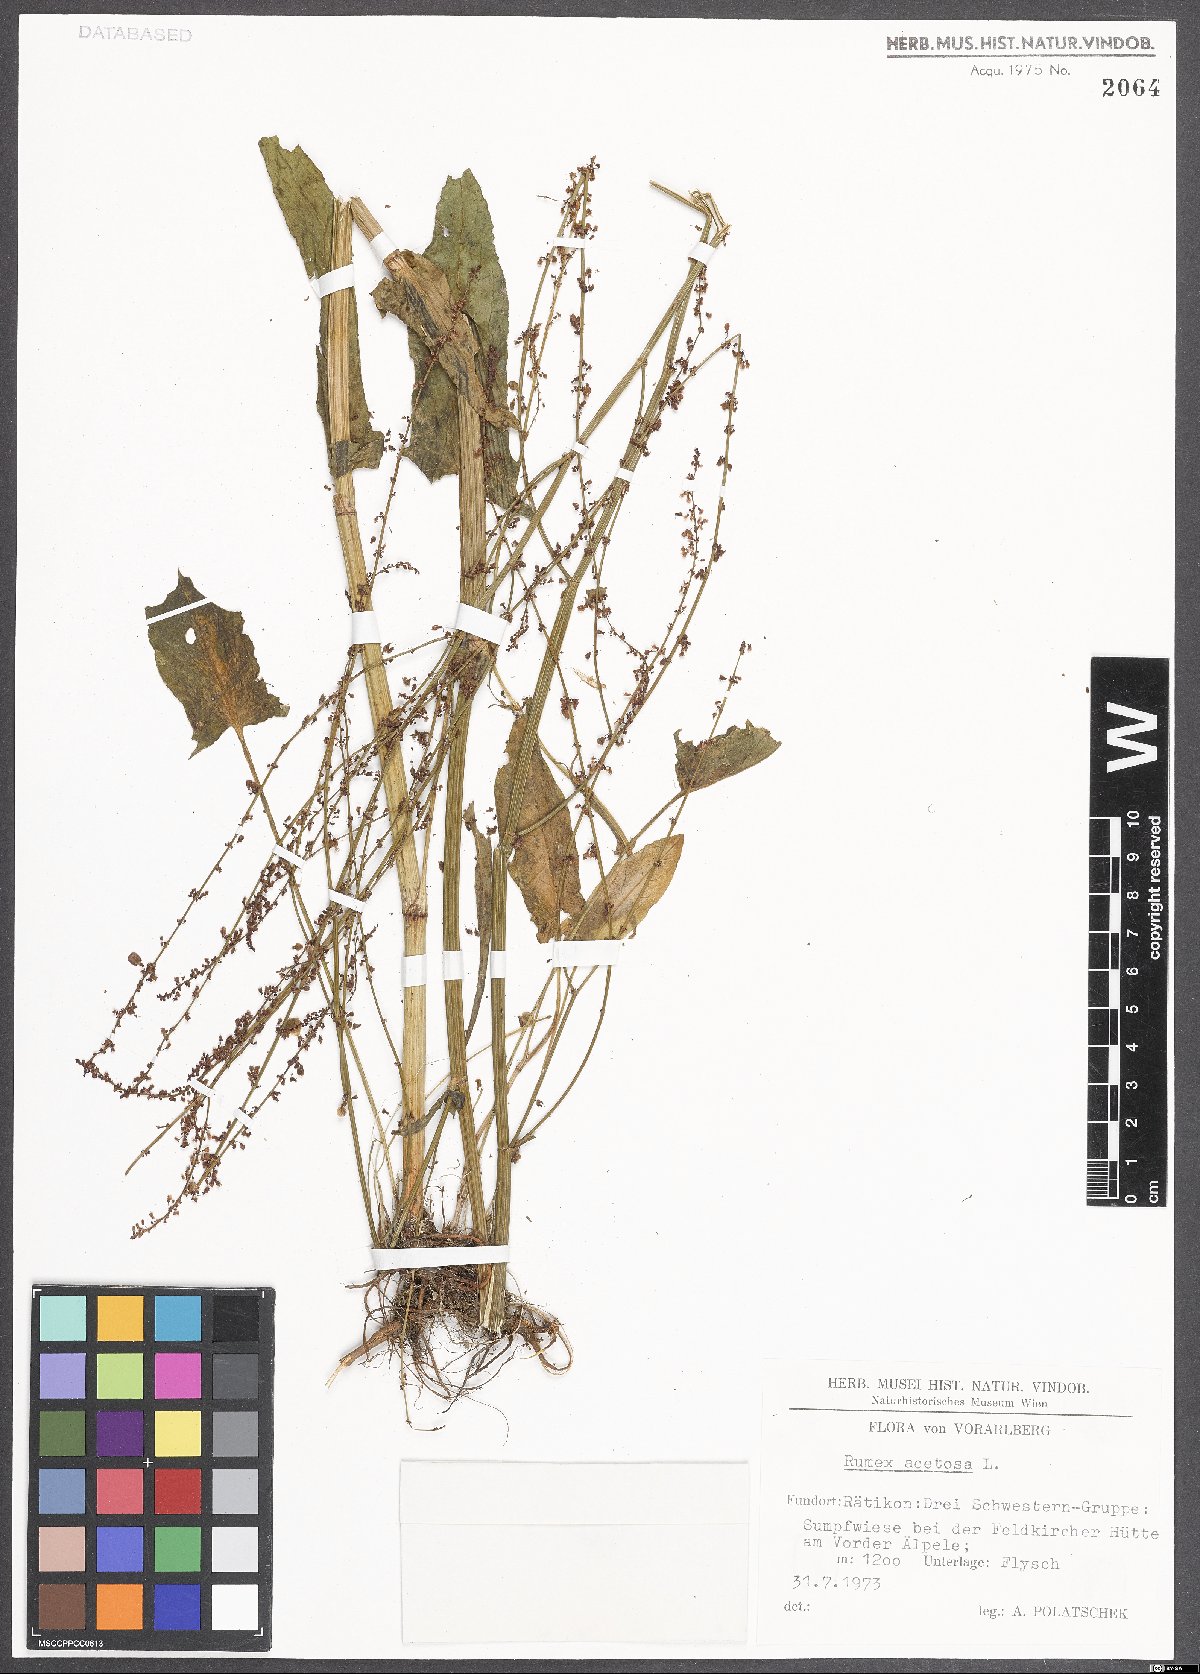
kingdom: Plantae
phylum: Tracheophyta
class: Magnoliopsida
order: Caryophyllales
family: Polygonaceae
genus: Rumex
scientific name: Rumex acetosa
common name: Garden sorrel
